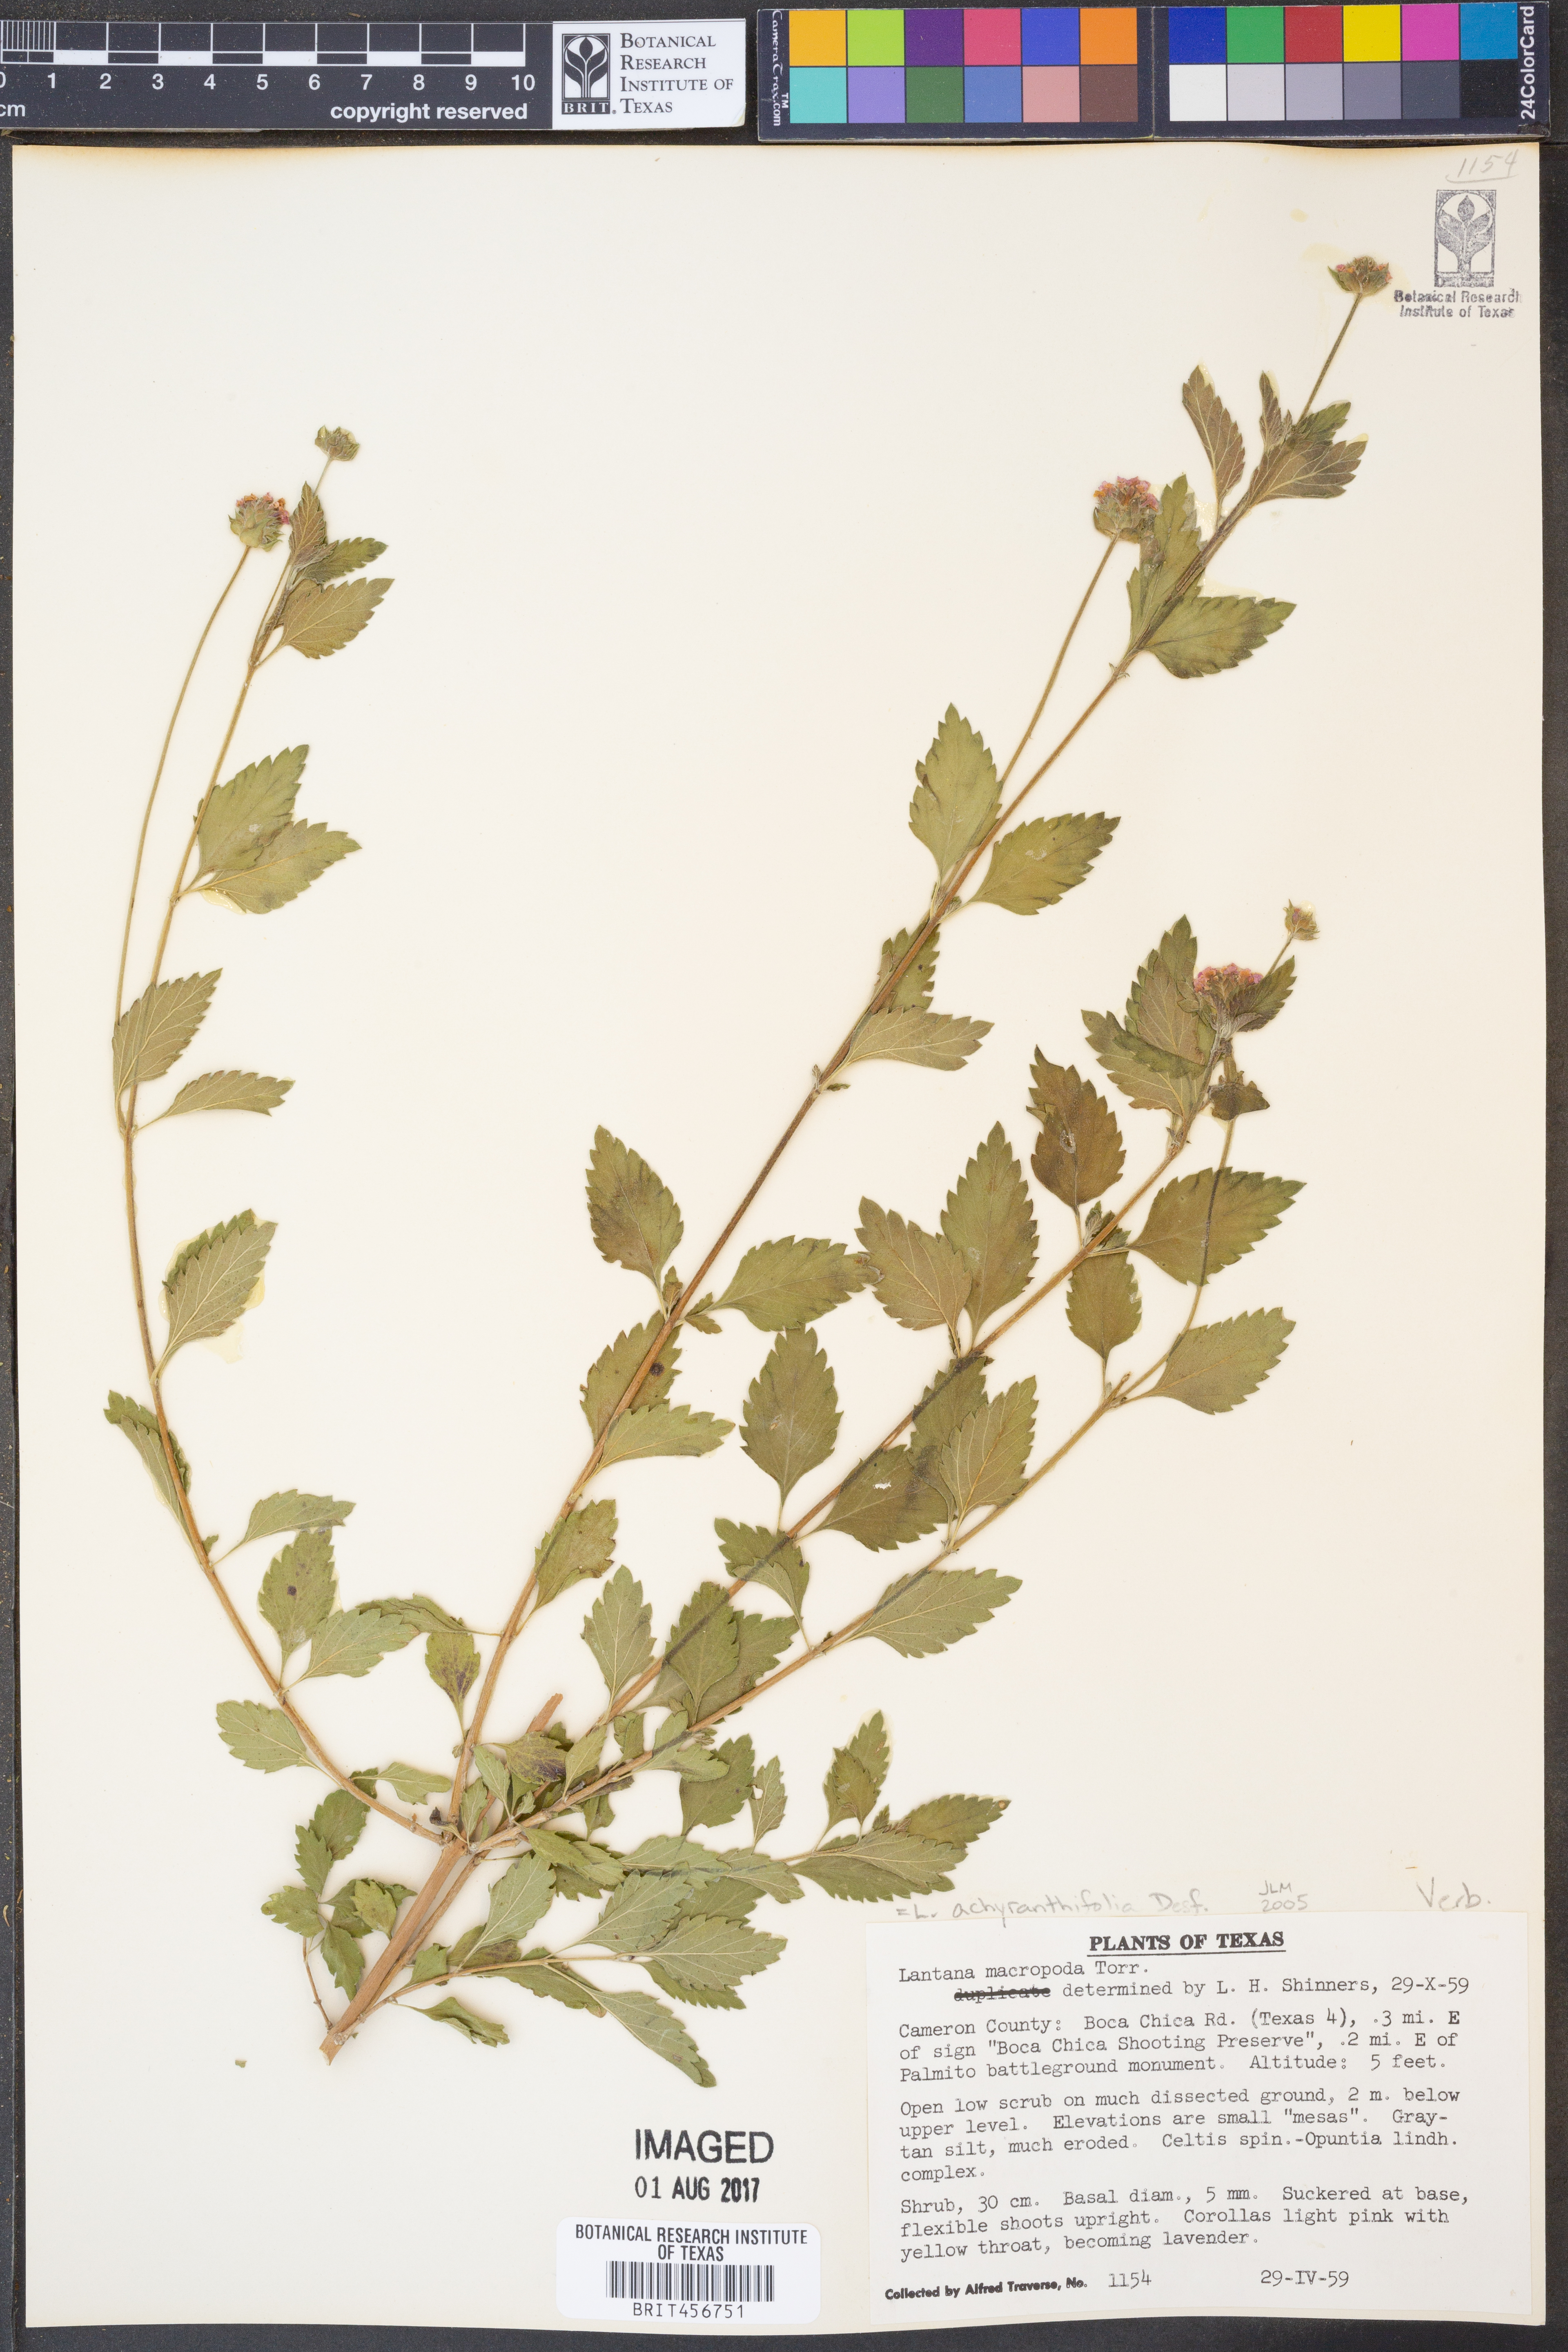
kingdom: Plantae
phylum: Tracheophyta
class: Magnoliopsida
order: Lamiales
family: Verbenaceae
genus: Lantana
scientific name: Lantana achyranthifolia
